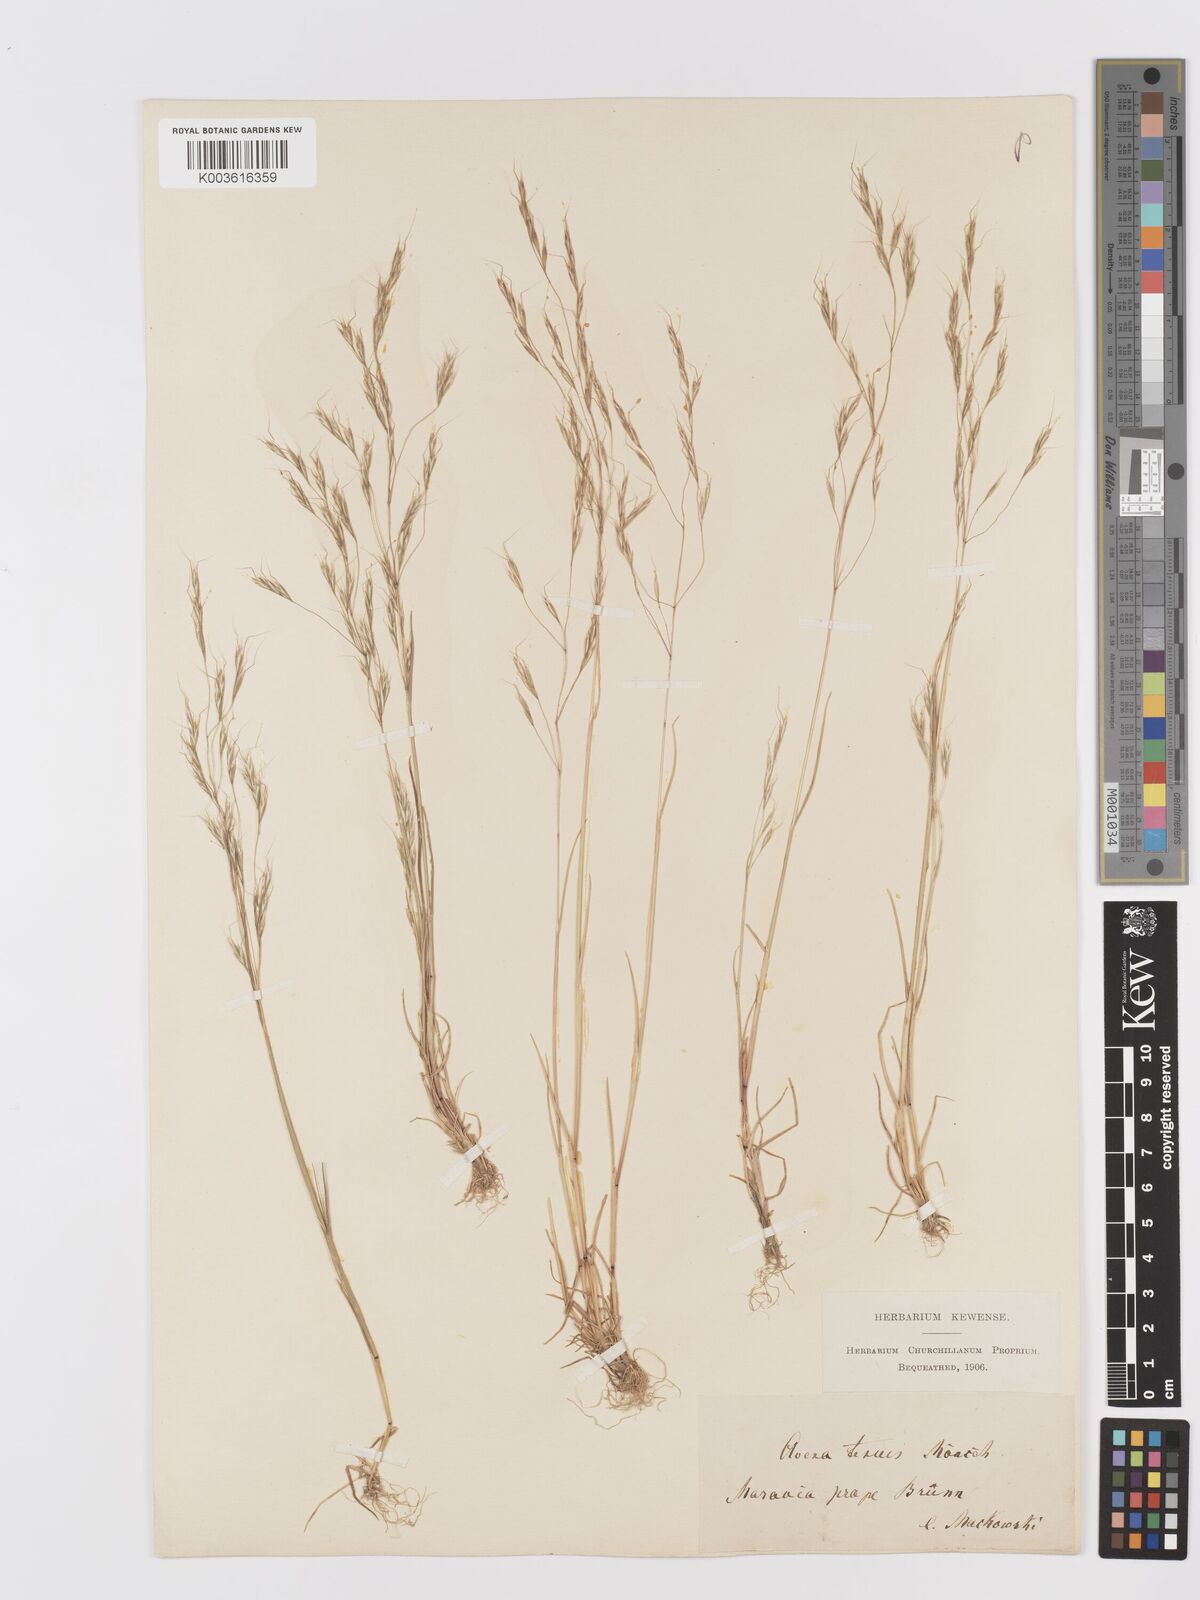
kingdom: Plantae
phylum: Tracheophyta
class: Liliopsida
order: Poales
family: Poaceae
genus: Ventenata
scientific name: Ventenata dubia
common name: North africa grass
